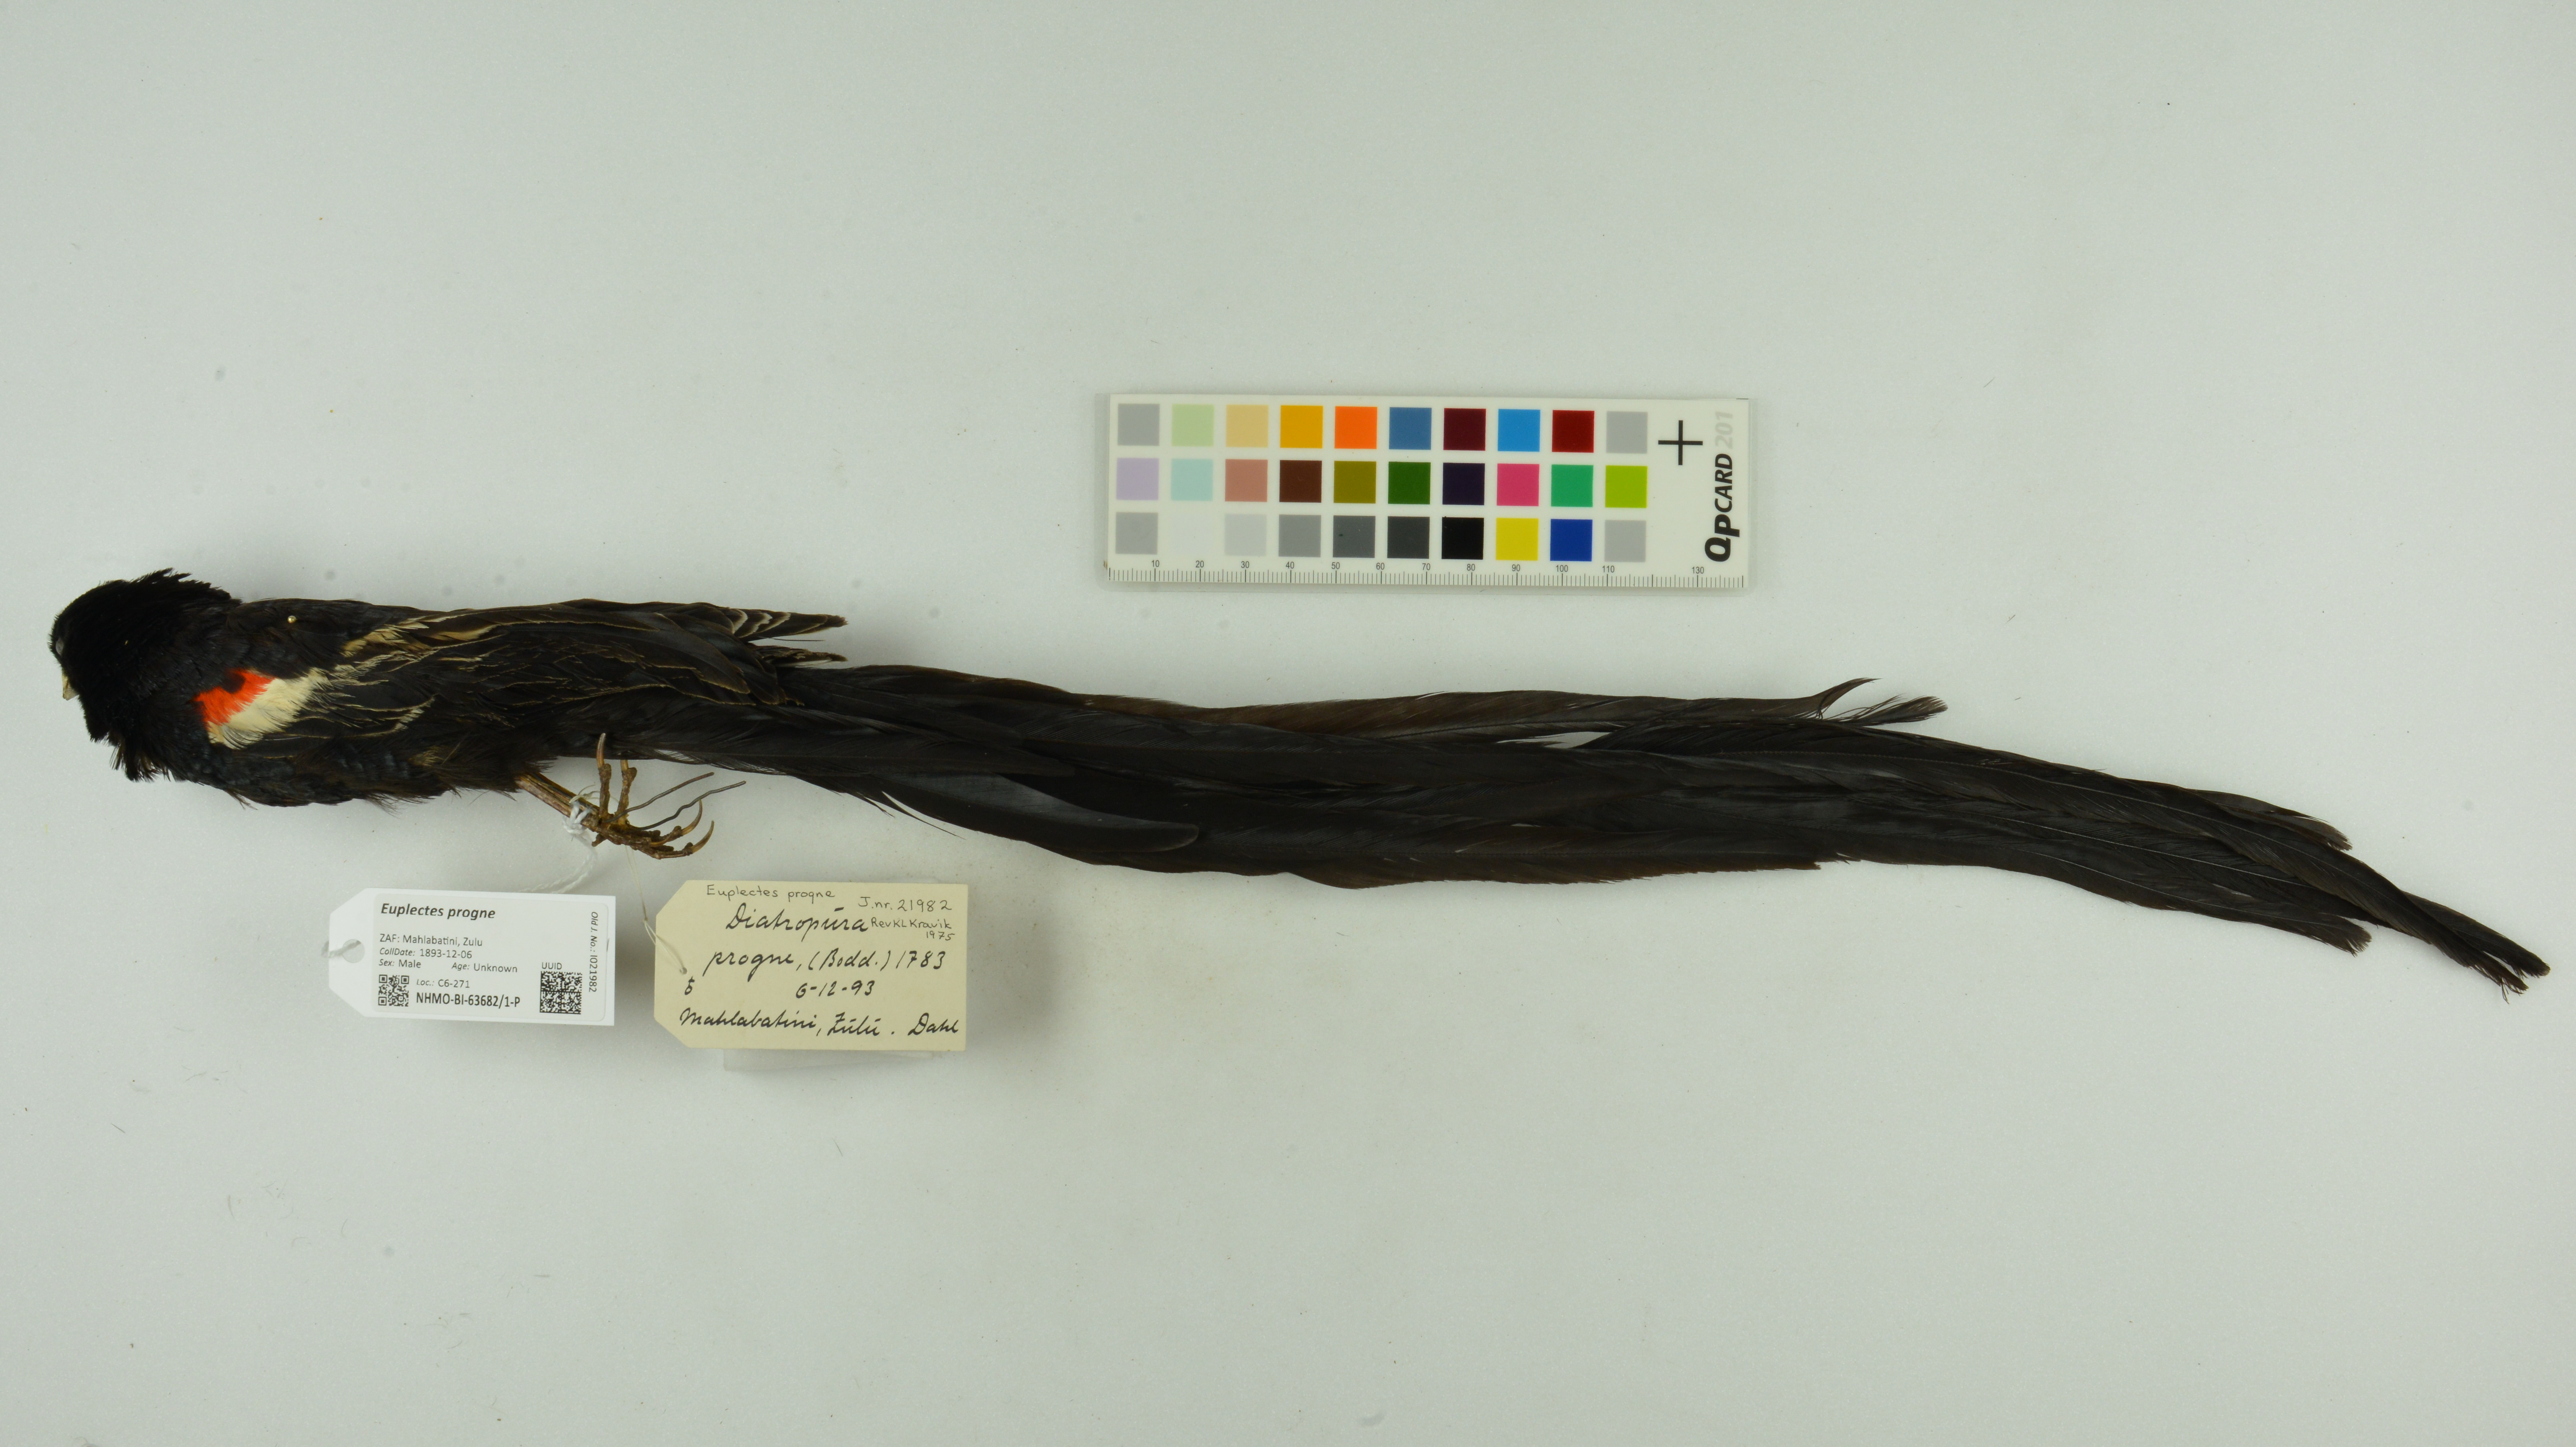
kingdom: Animalia
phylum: Chordata
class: Aves
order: Passeriformes
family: Ploceidae
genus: Euplectes
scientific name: Euplectes progne
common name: Long-tailed widowbird
